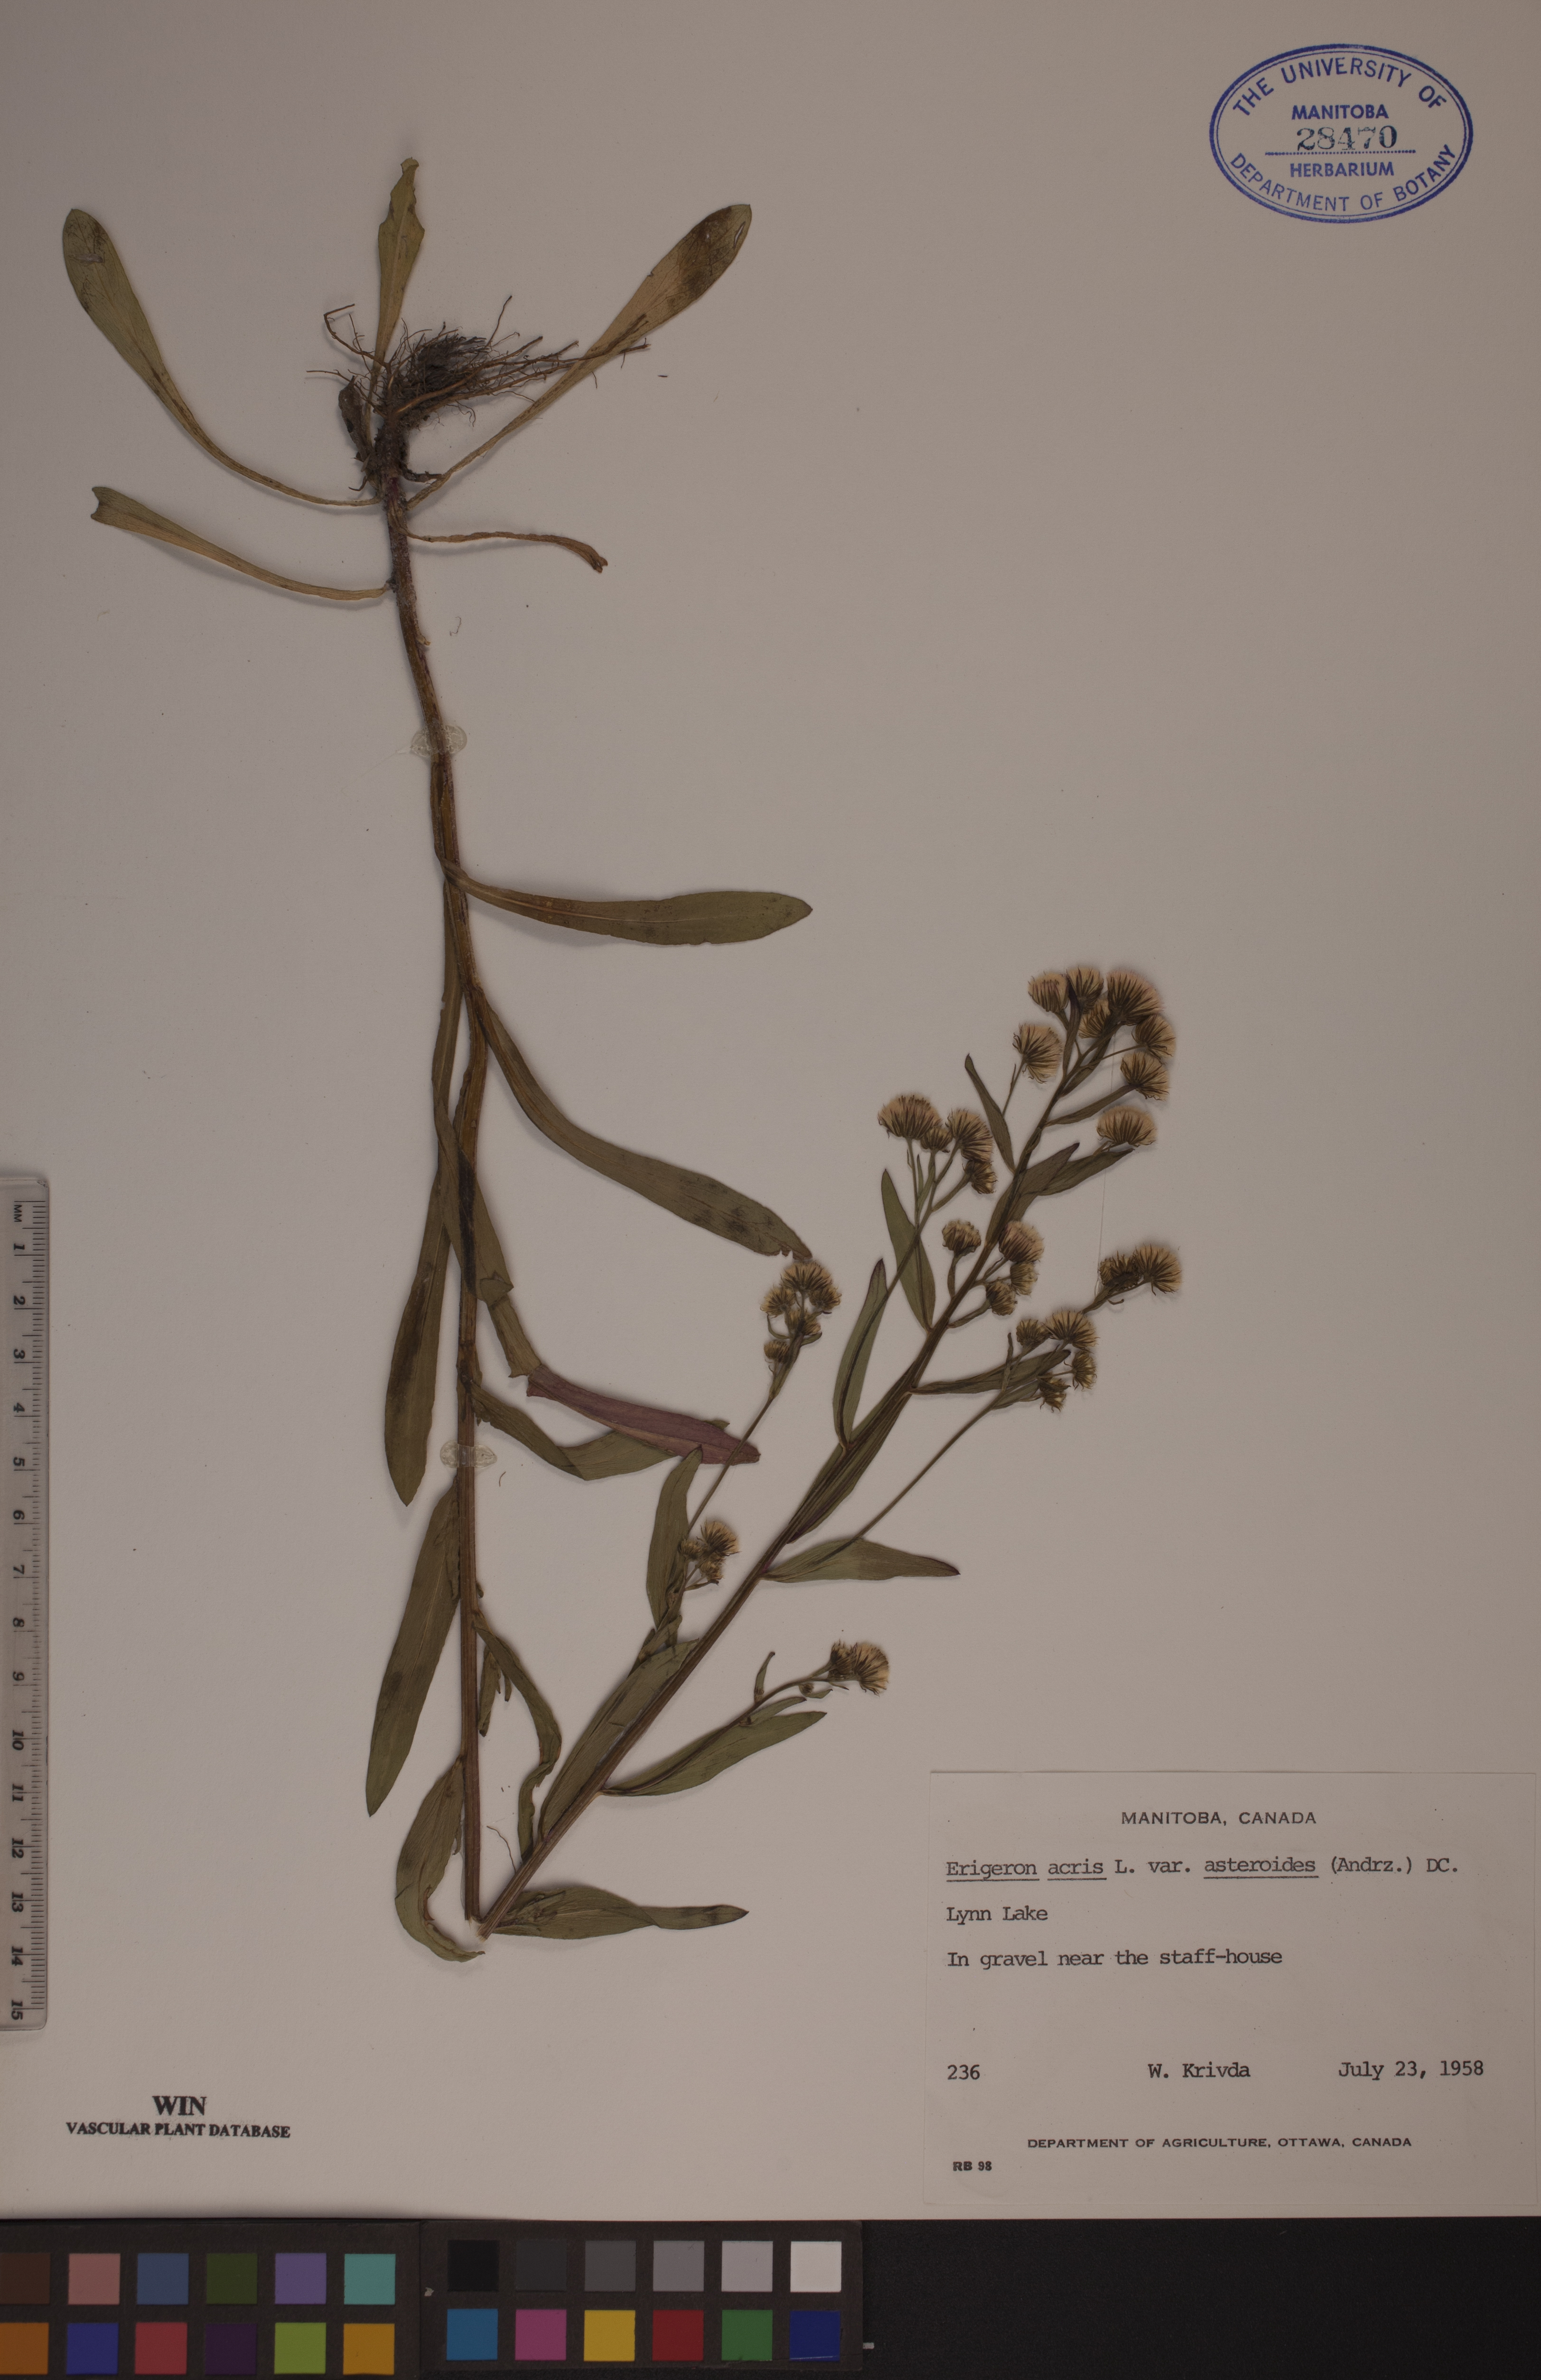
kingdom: Plantae
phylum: Tracheophyta
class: Magnoliopsida
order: Asterales
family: Asteraceae
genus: Erigeron
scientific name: Erigeron podolicus
